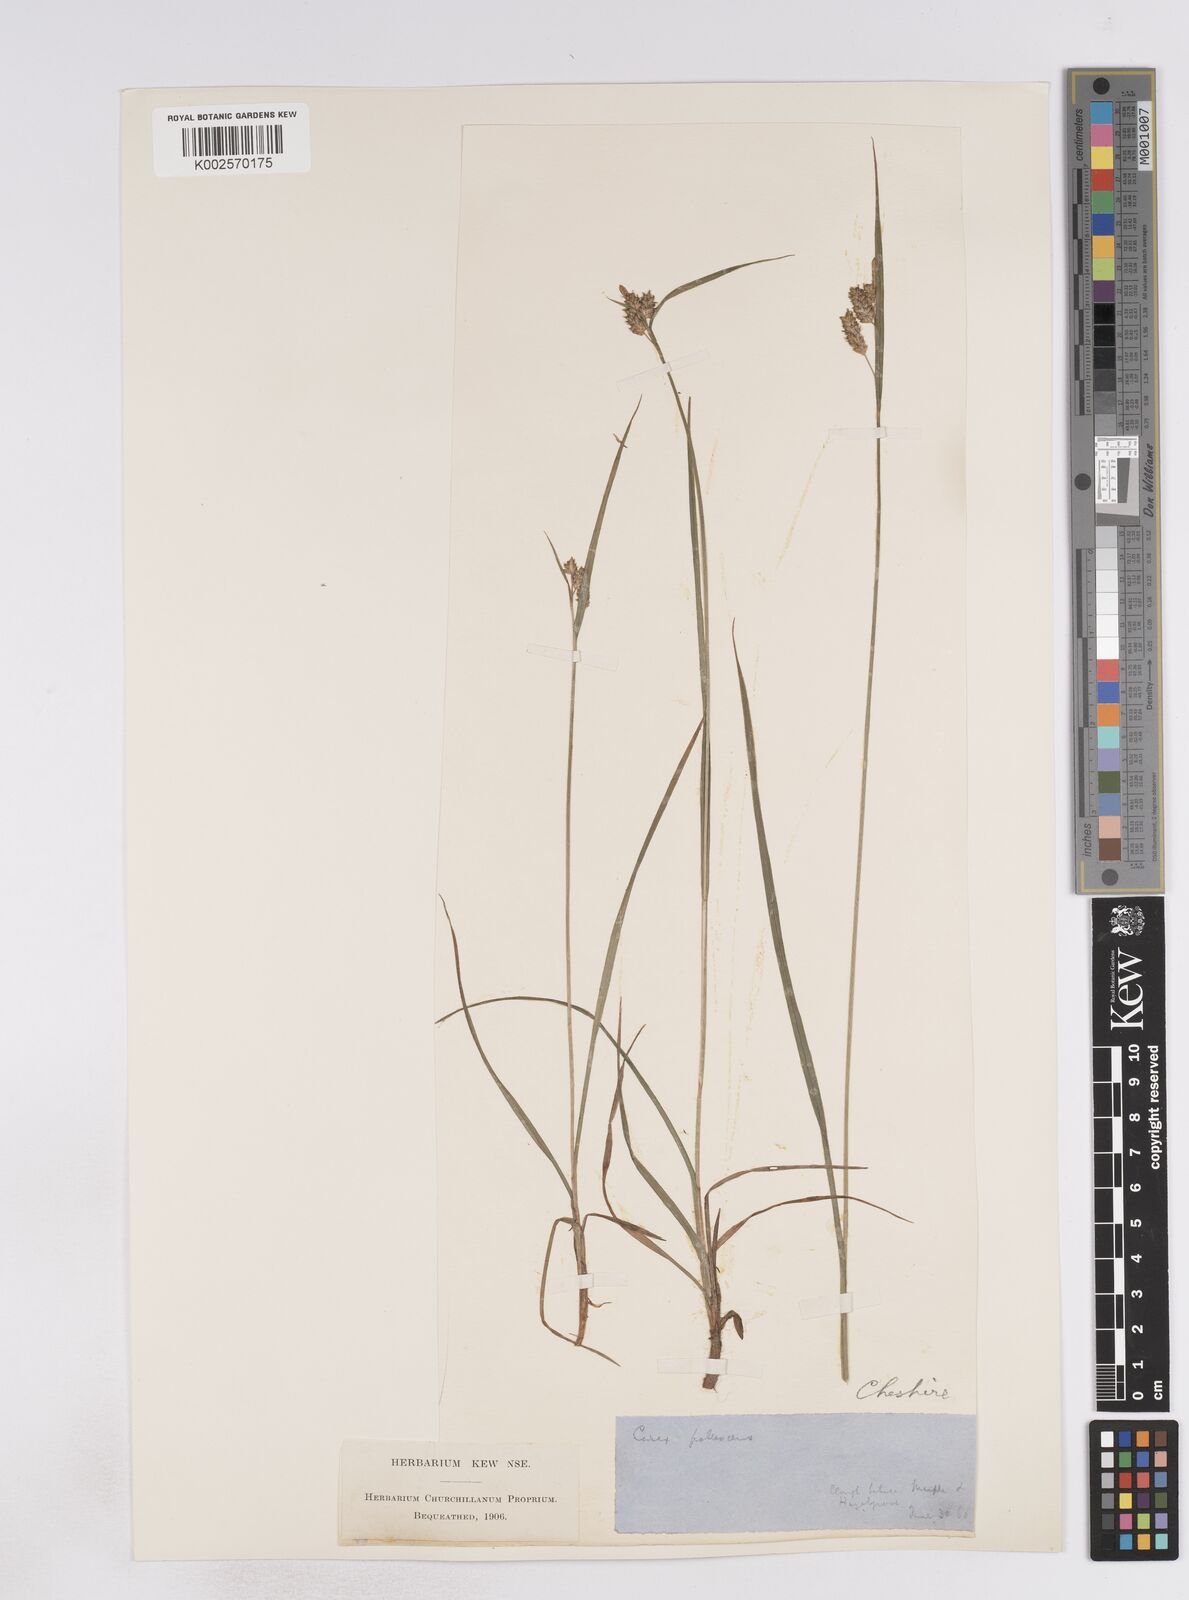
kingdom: Plantae
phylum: Tracheophyta
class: Liliopsida
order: Poales
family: Cyperaceae
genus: Carex
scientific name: Carex pallescens
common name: Pale sedge
